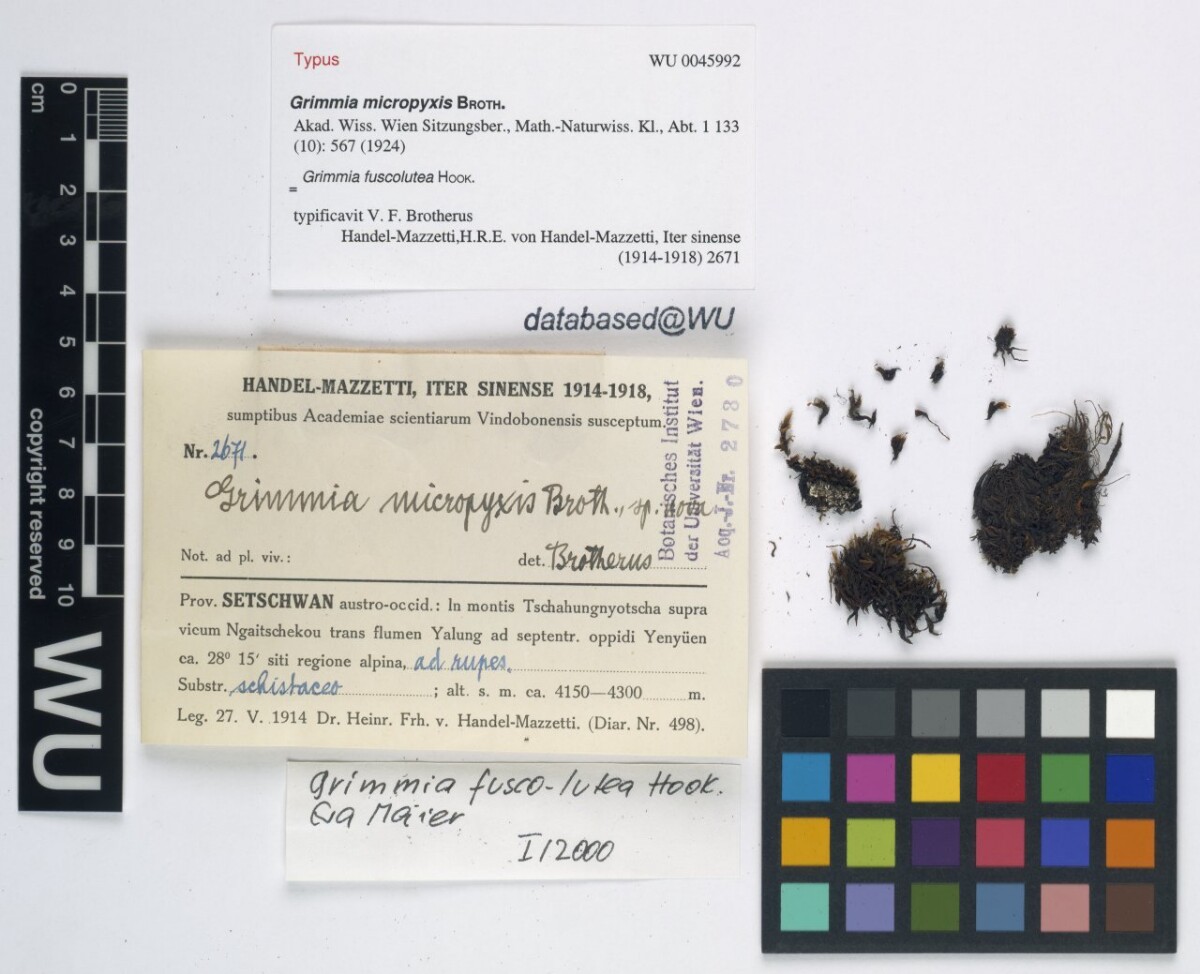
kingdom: Plantae
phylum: Bryophyta
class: Bryopsida
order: Grimmiales
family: Grimmiaceae
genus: Grimmia
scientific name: Grimmia fuscolutea
